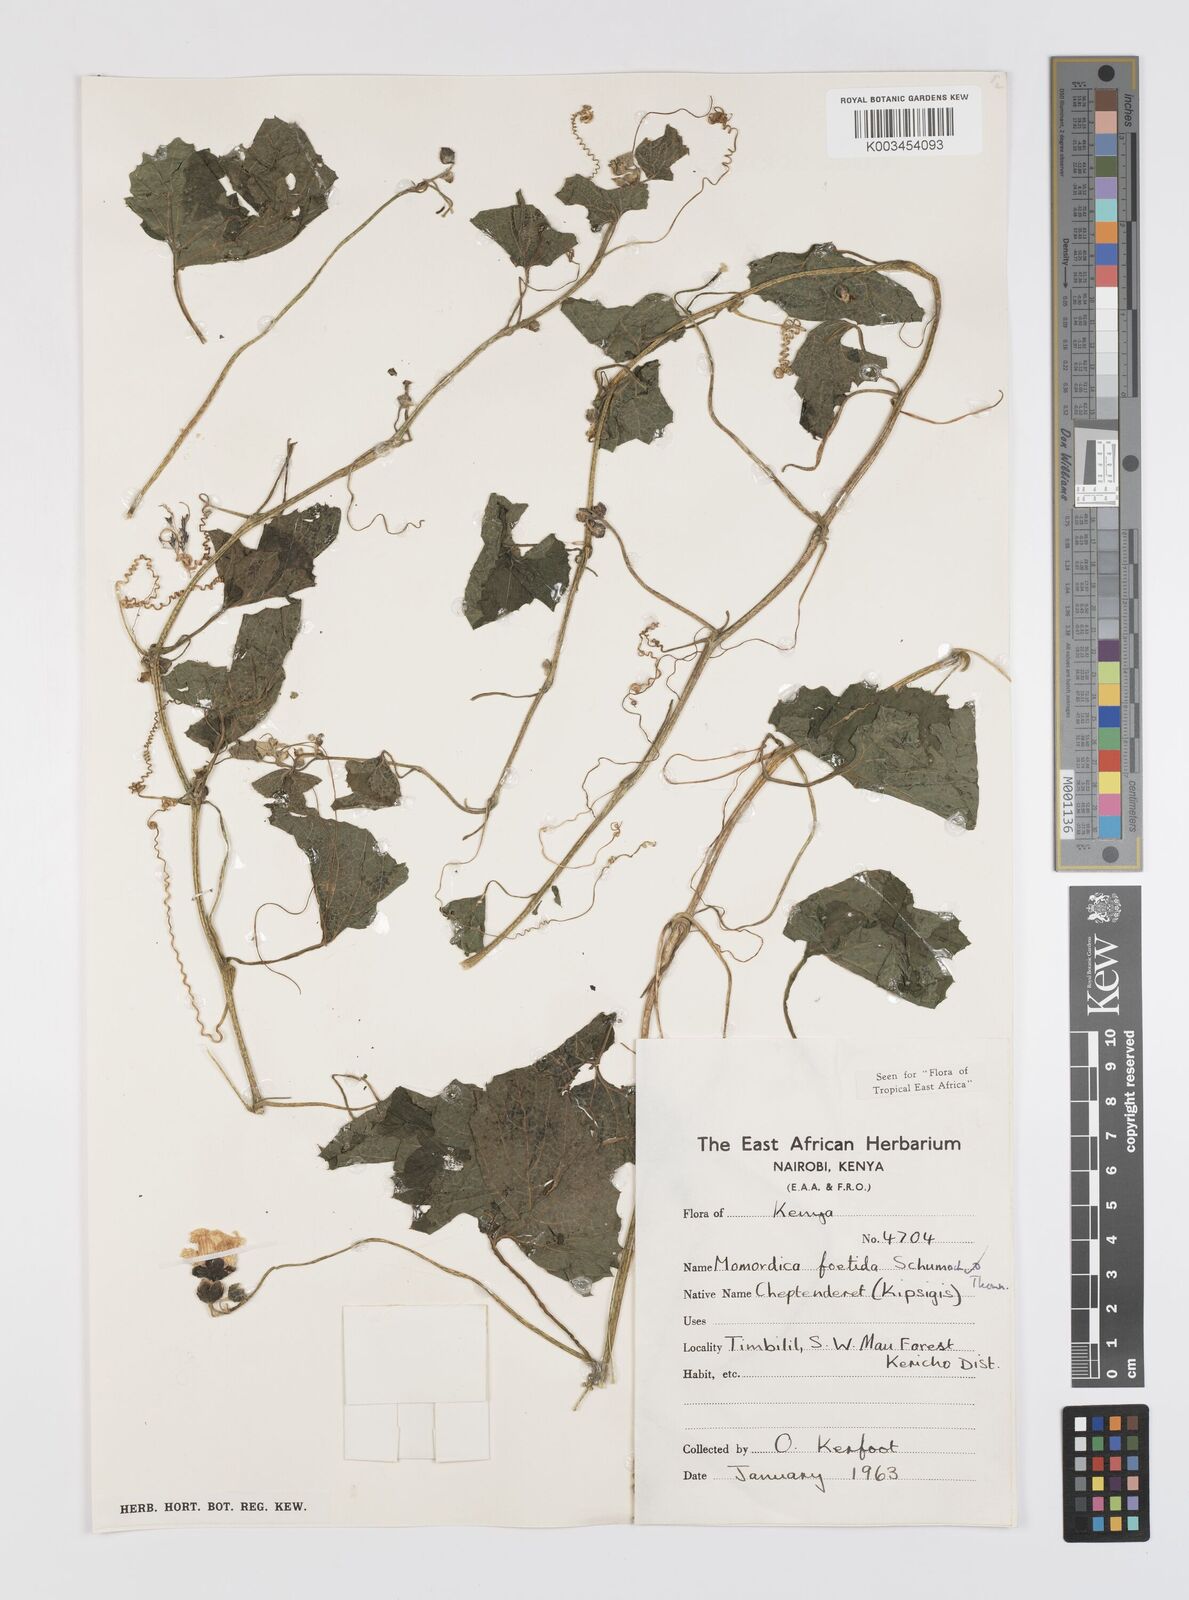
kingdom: Plantae
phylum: Tracheophyta
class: Magnoliopsida
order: Cucurbitales
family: Cucurbitaceae
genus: Momordica
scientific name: Momordica foetida
